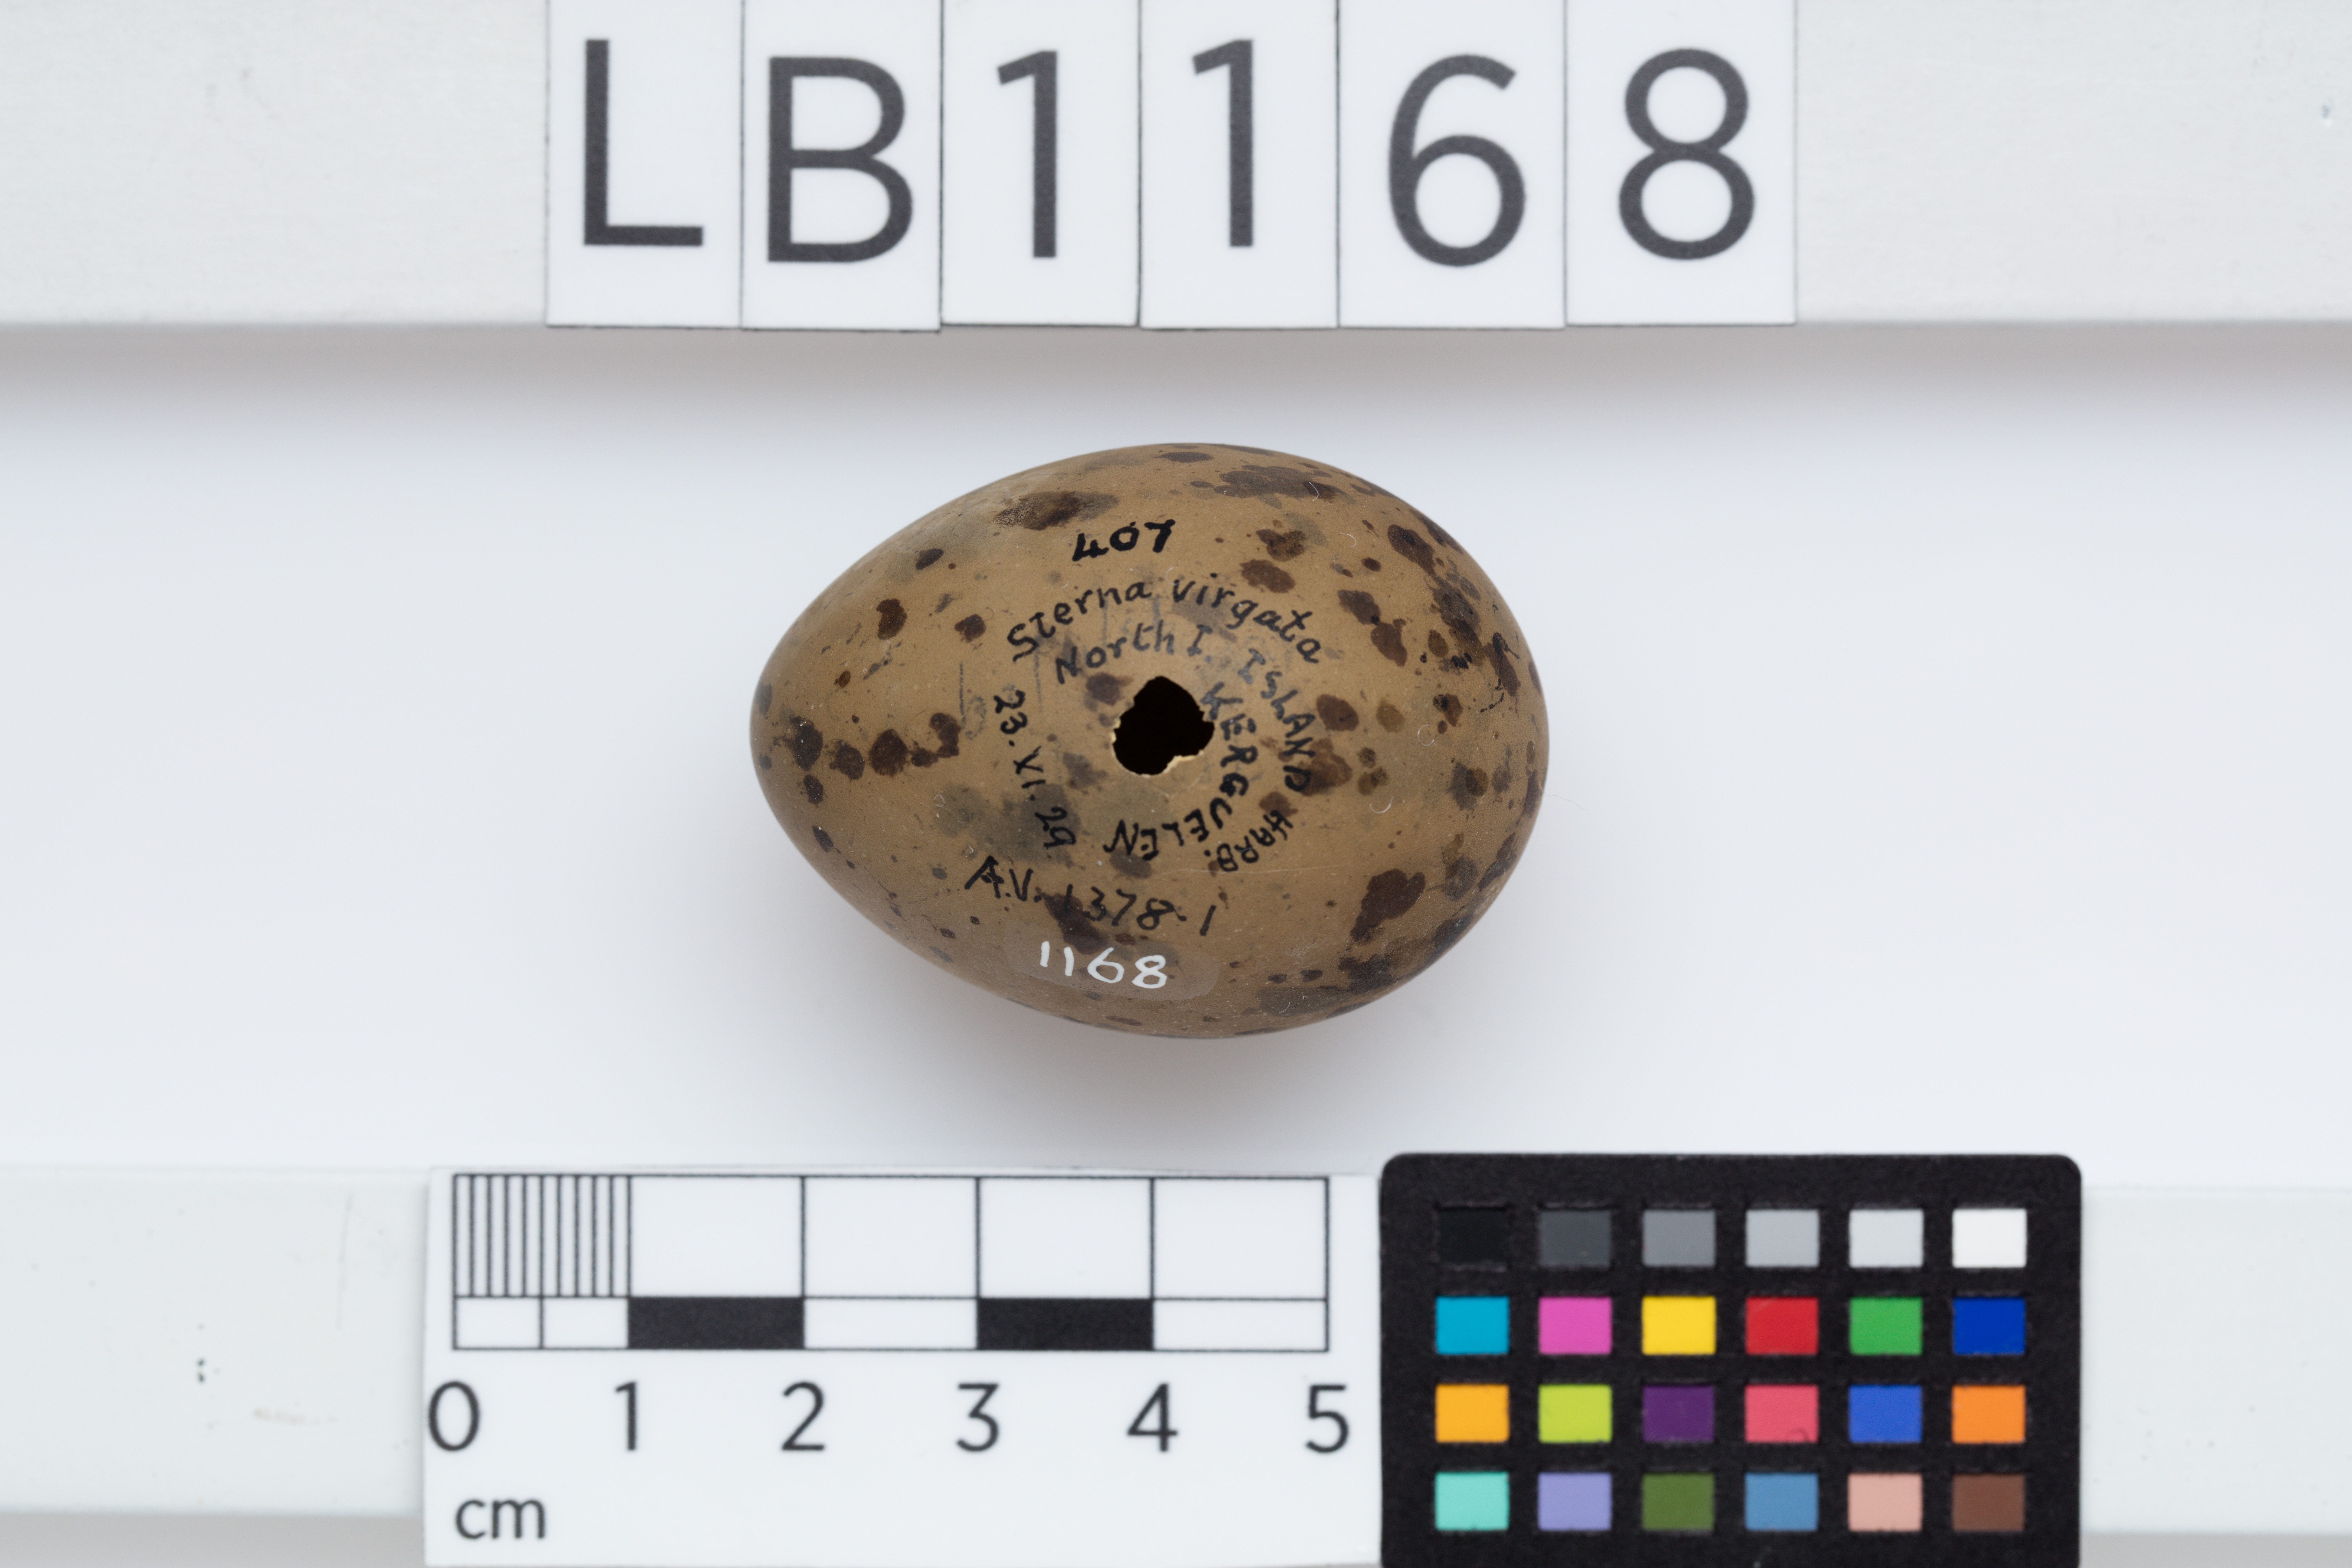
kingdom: Animalia
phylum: Chordata
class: Aves
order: Charadriiformes
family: Laridae
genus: Sterna
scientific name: Sterna virgata
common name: Kerguelen tern
